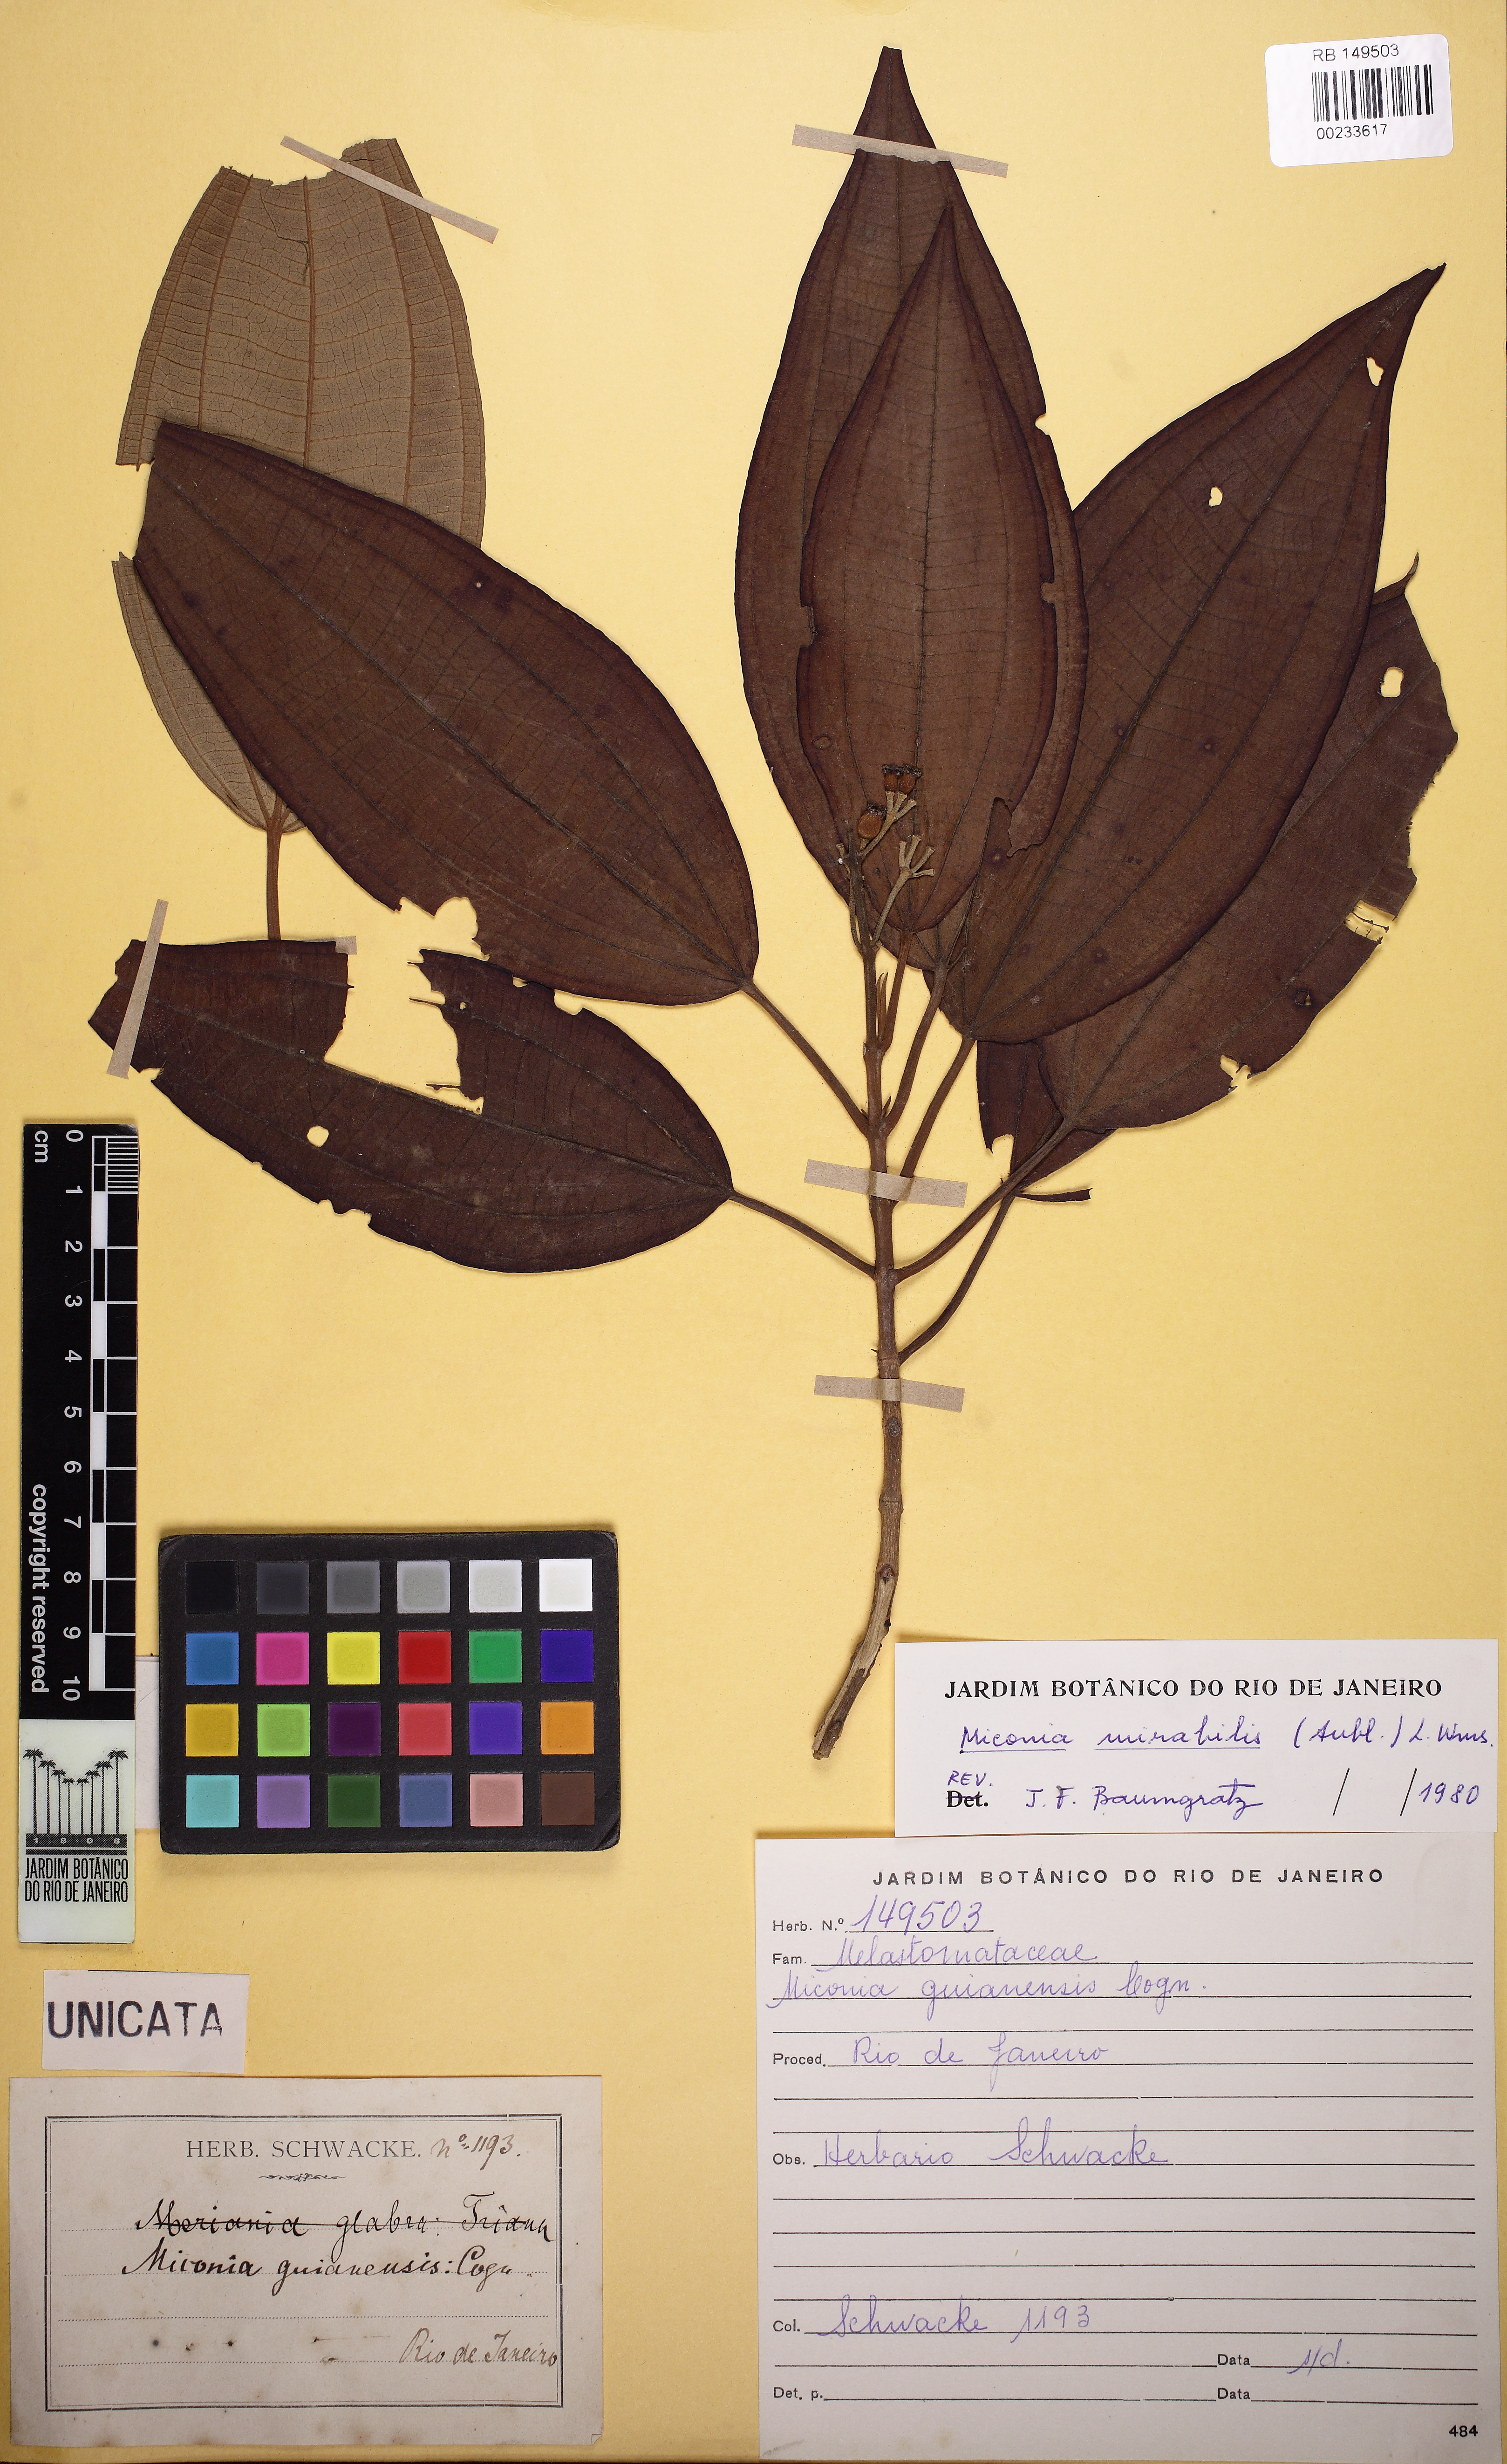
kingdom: Plantae
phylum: Tracheophyta
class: Magnoliopsida
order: Myrtales
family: Melastomataceae
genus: Miconia
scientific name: Miconia mirabilis
